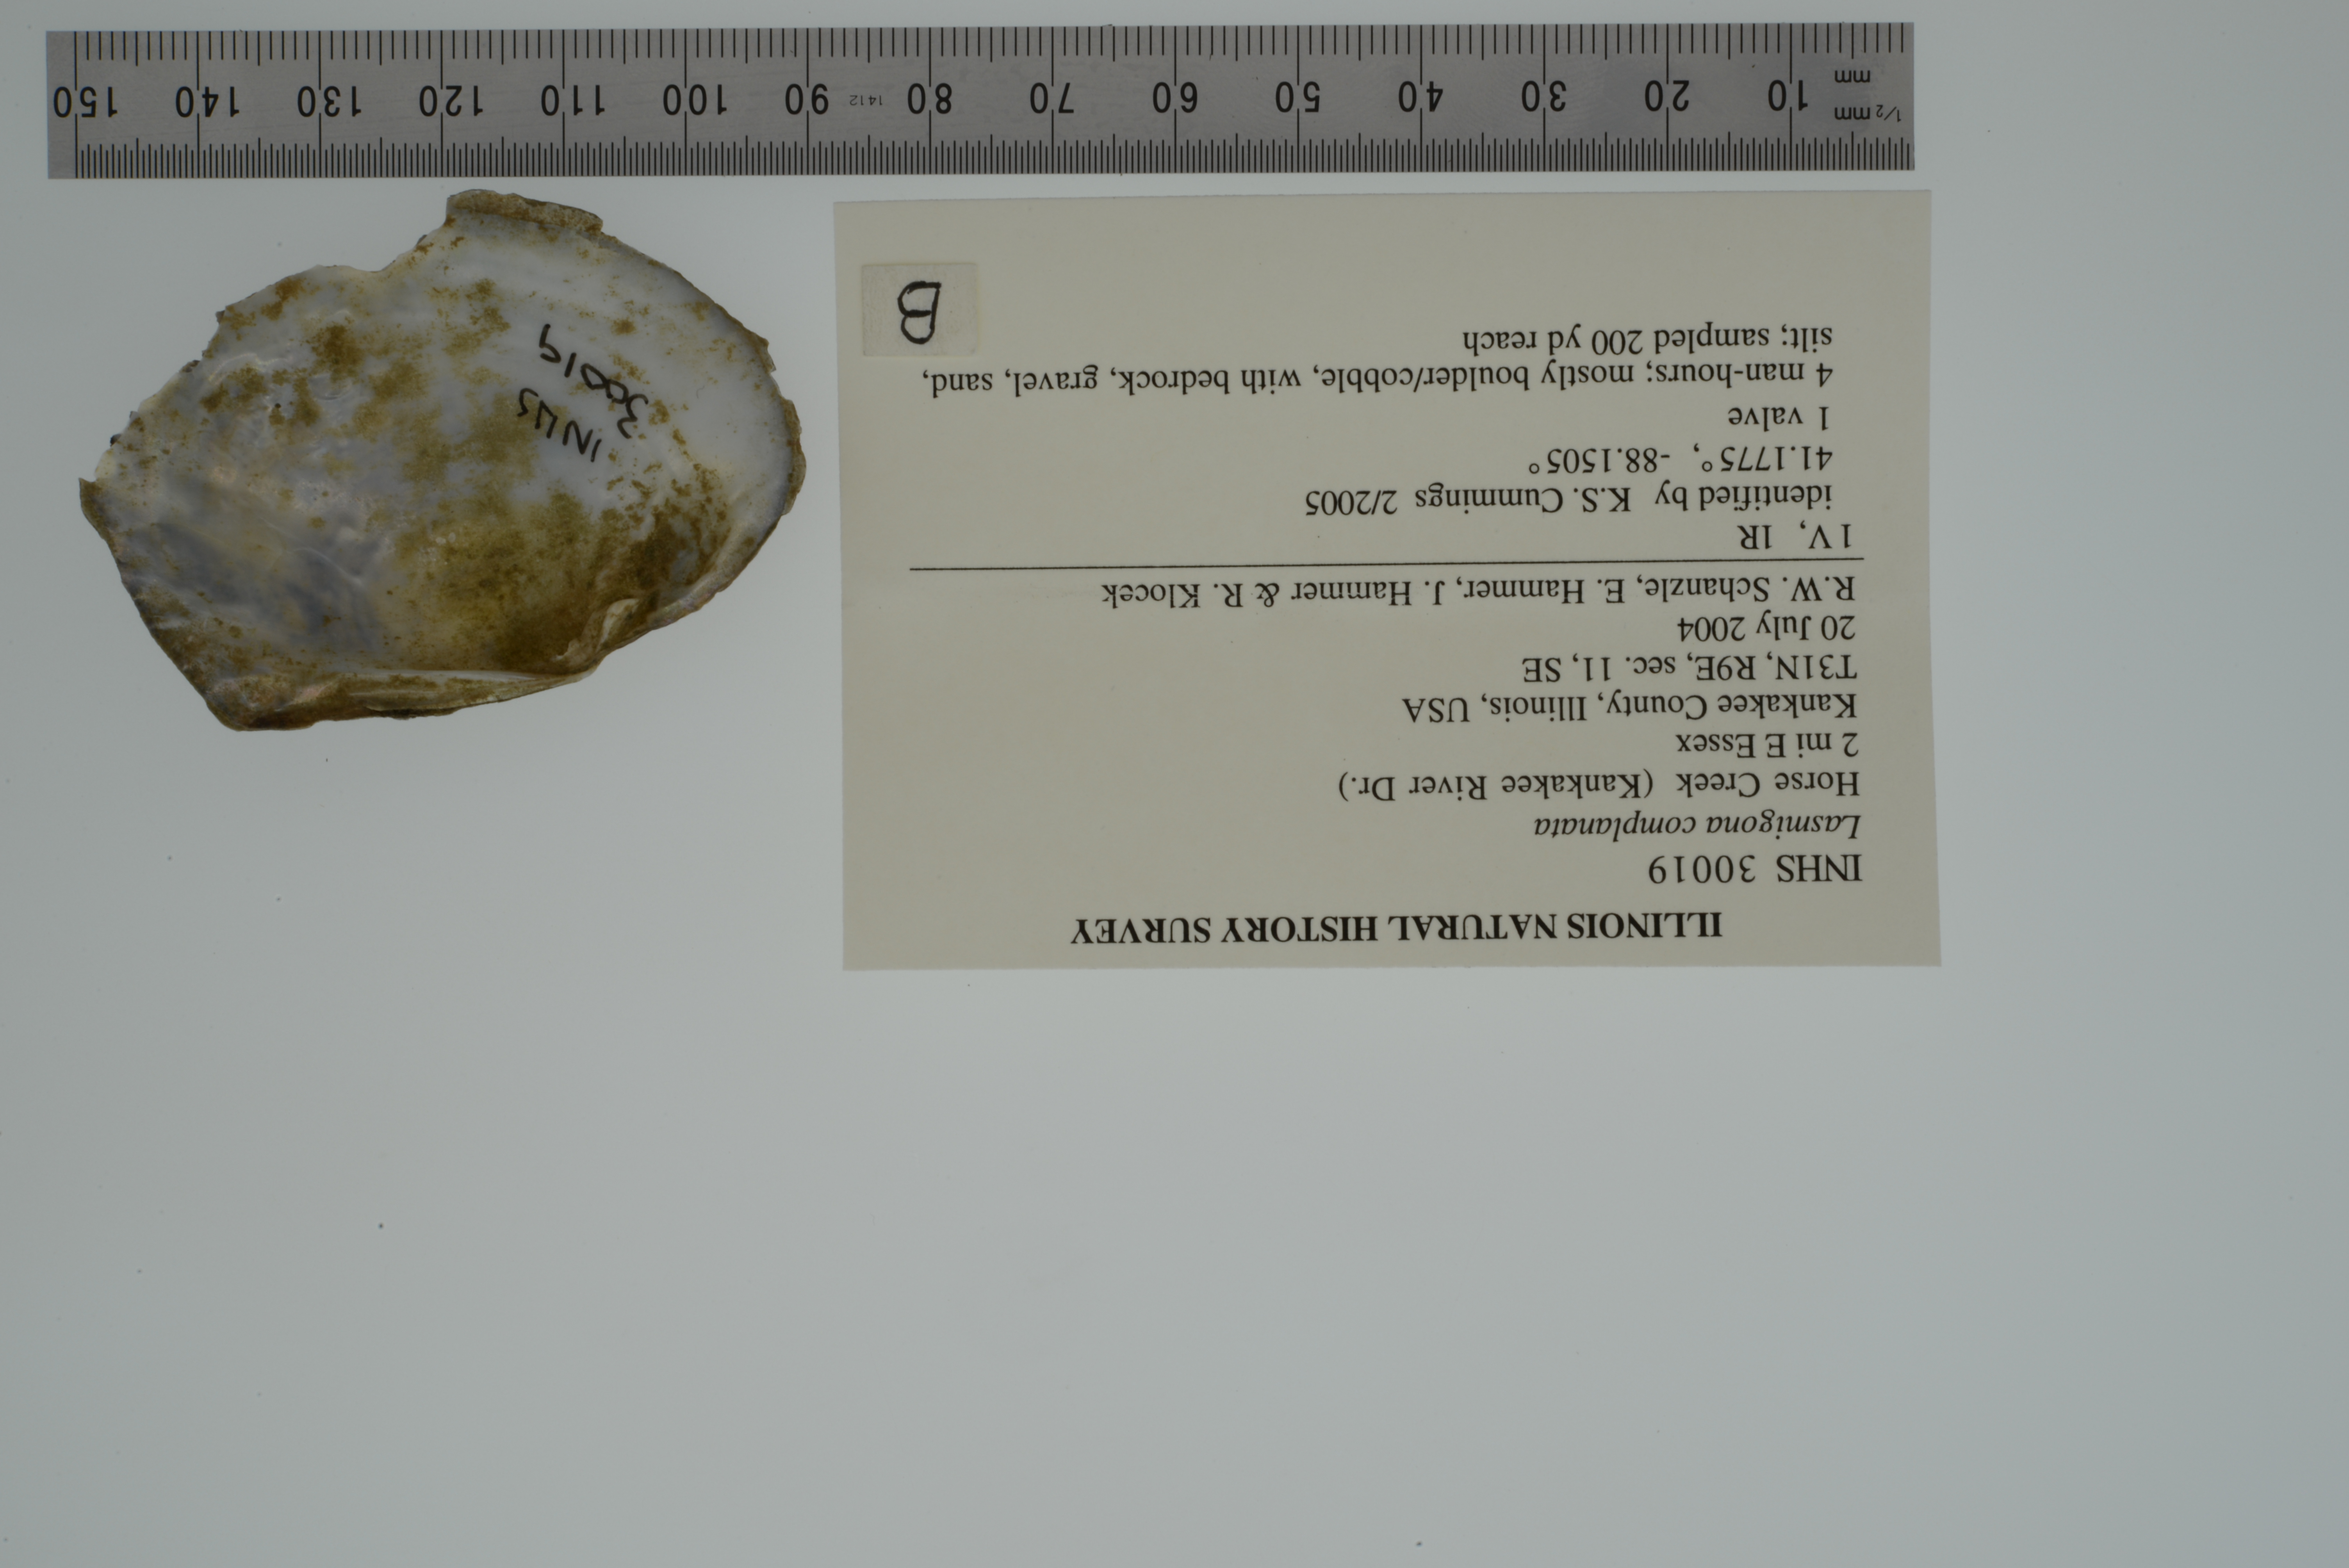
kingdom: Animalia
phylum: Mollusca
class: Bivalvia
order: Unionida
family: Unionidae
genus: Lasmigona
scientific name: Lasmigona complanata
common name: White heelsplitter
